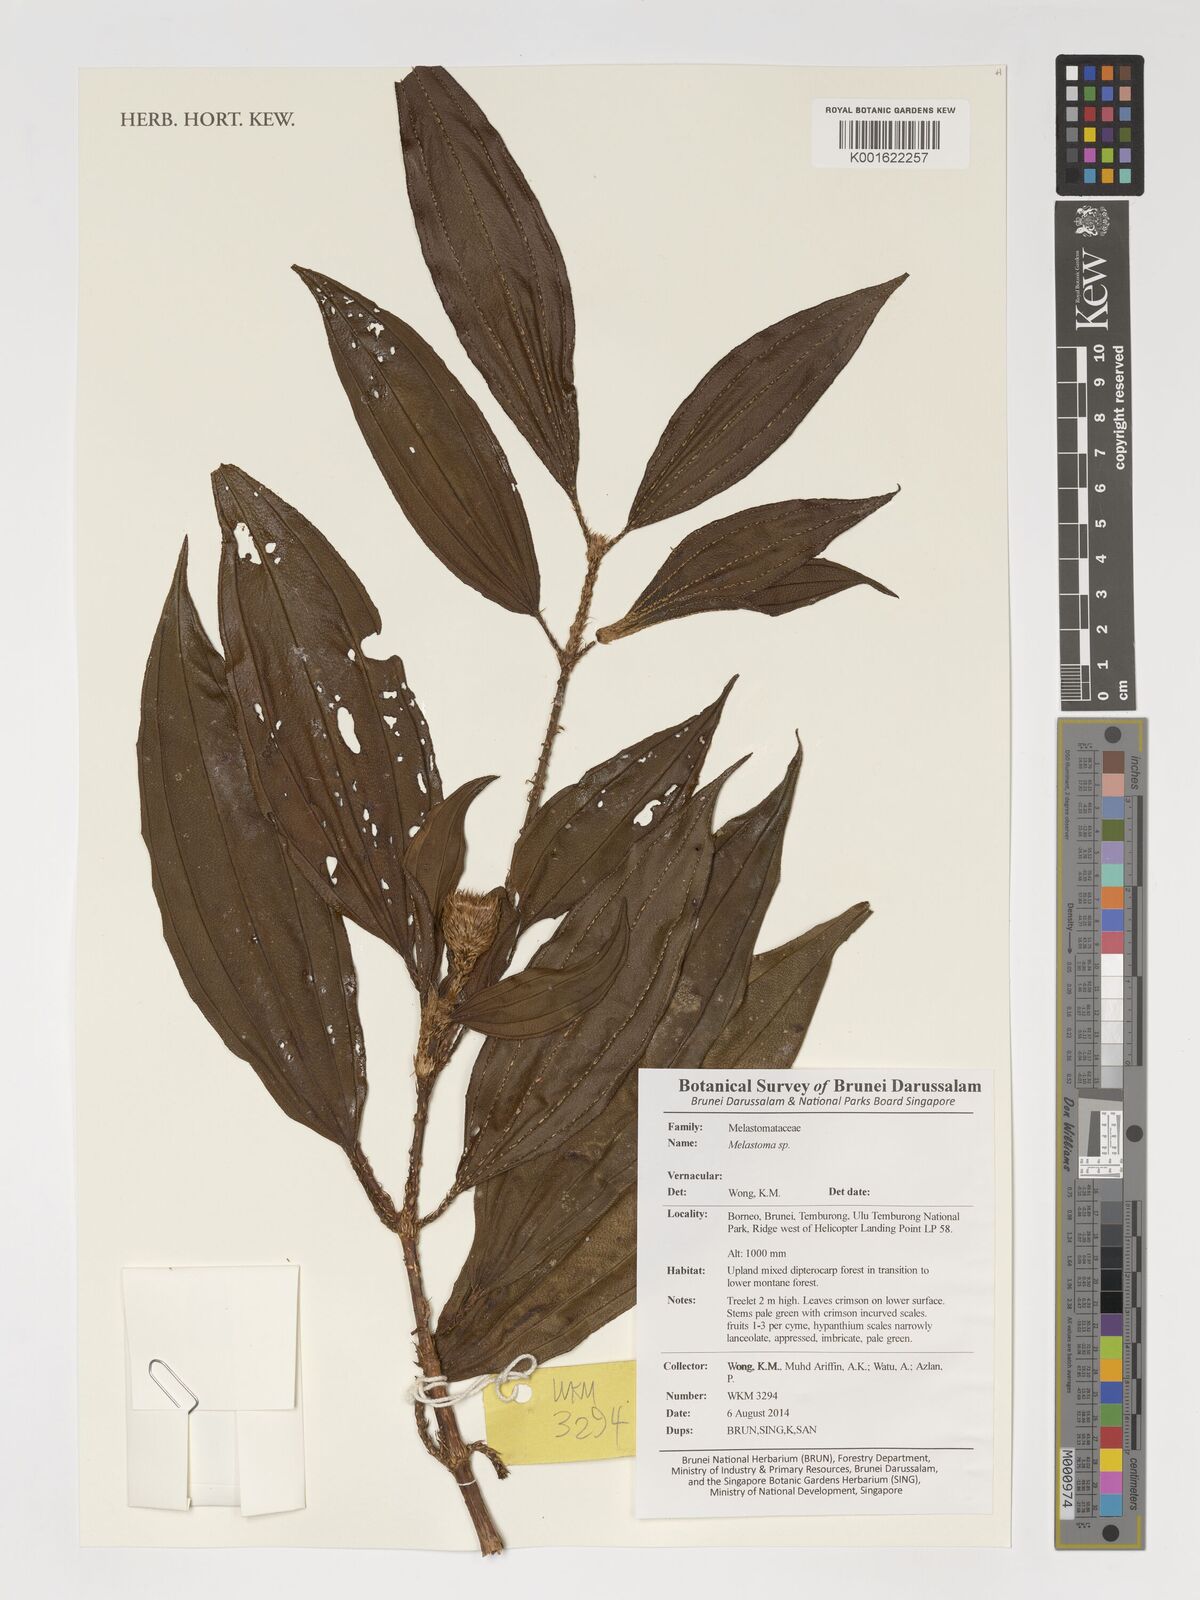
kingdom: Plantae
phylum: Tracheophyta
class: Magnoliopsida
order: Myrtales
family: Melastomataceae
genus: Melastoma
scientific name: Melastoma
